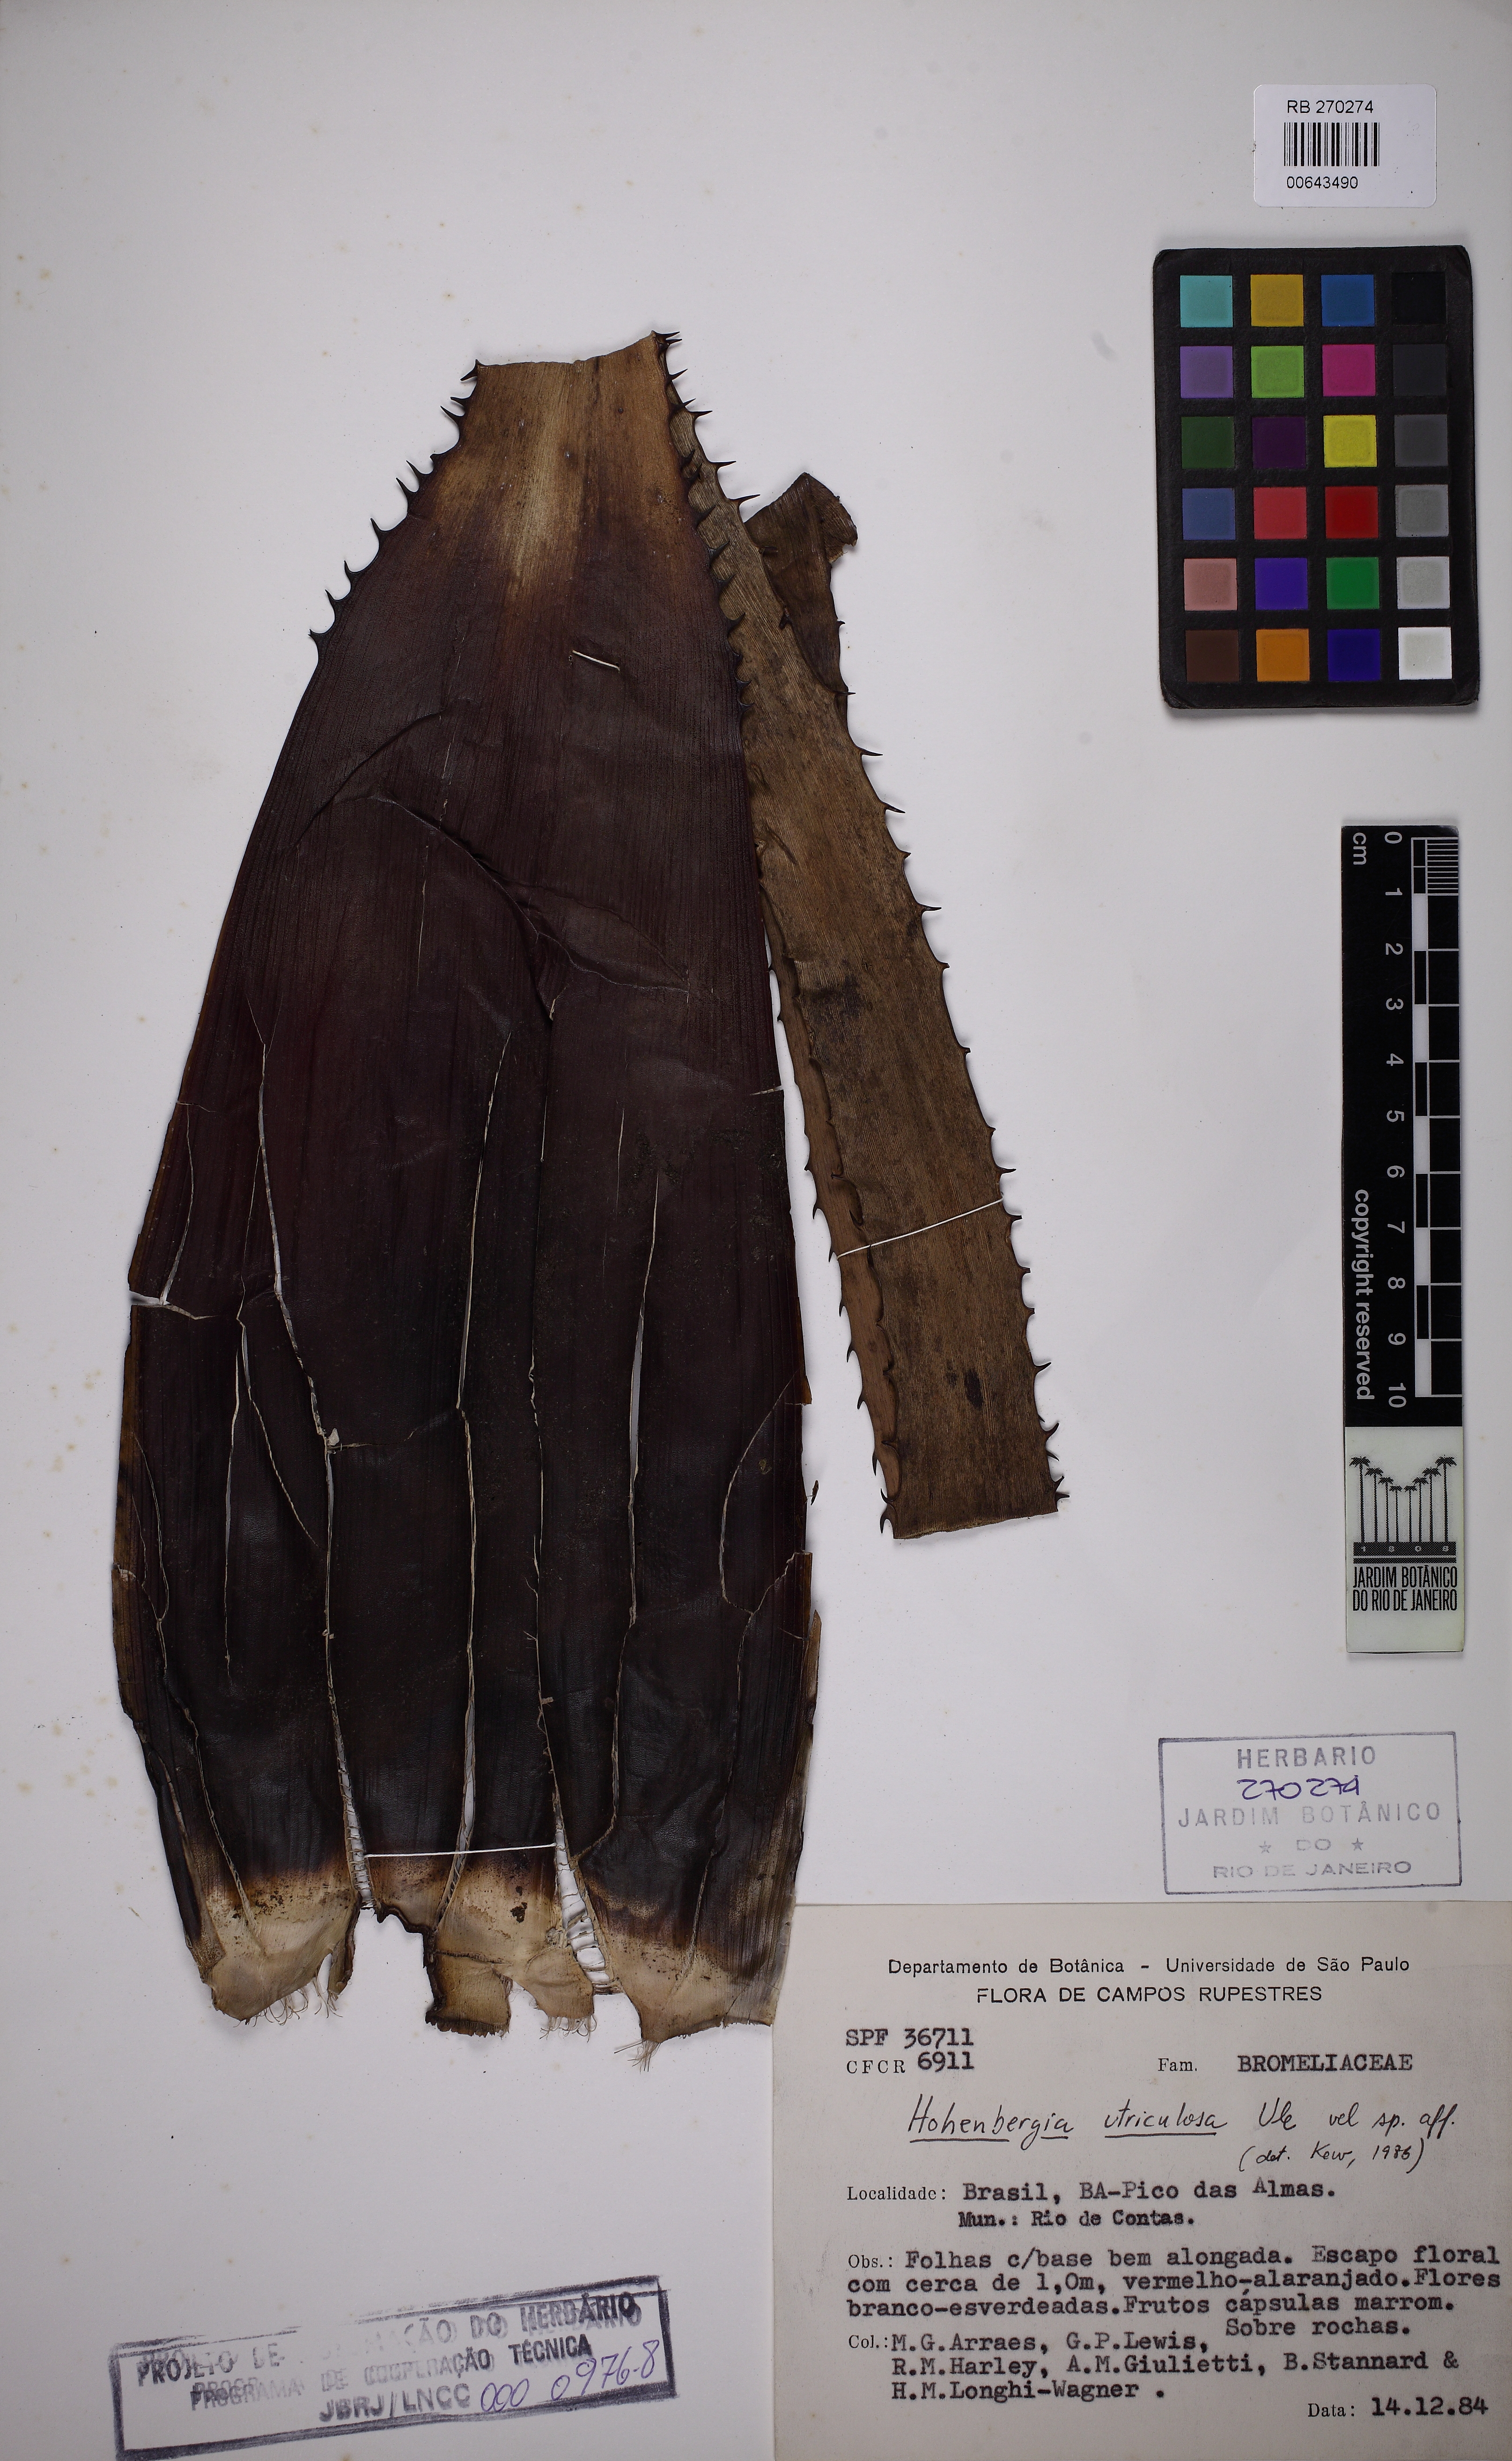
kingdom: Plantae
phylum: Tracheophyta
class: Liliopsida
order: Poales
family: Bromeliaceae
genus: Hohenbergia
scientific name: Hohenbergia utriculosa
